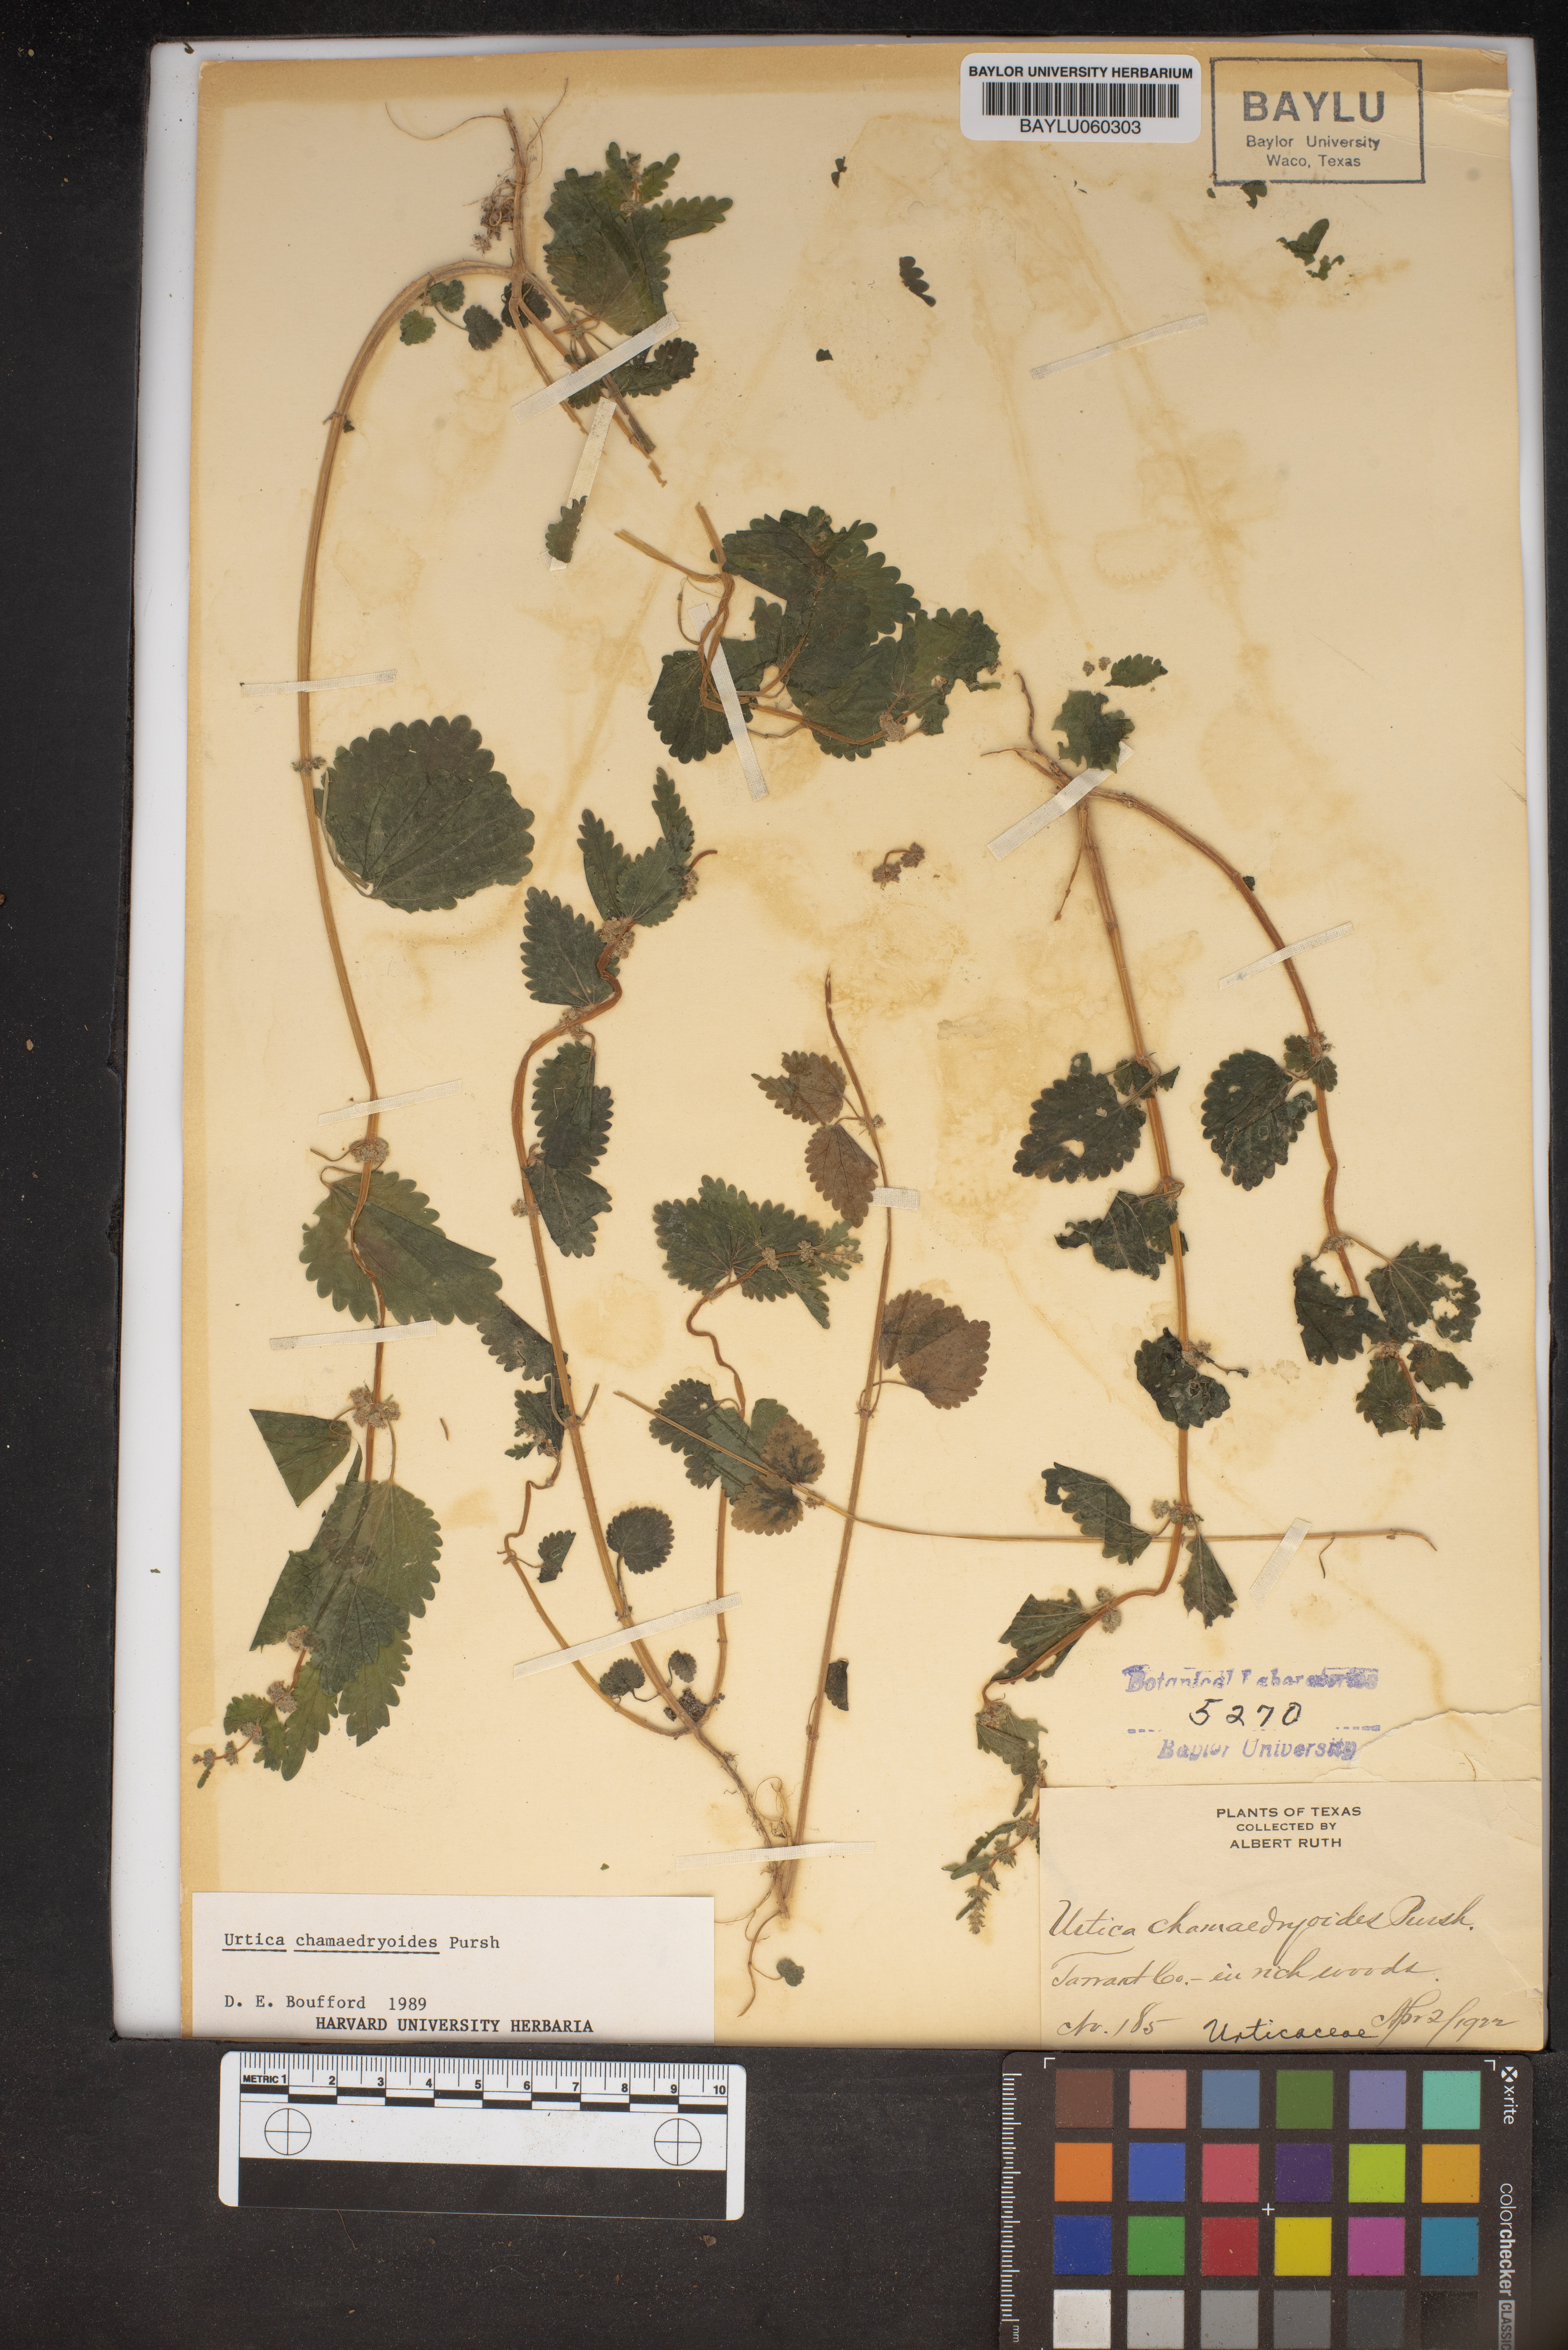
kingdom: Plantae
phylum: Tracheophyta
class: Magnoliopsida
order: Rosales
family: Urticaceae
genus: Urtica
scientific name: Urtica chamaedryoides
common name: Heart-leaf nettle
